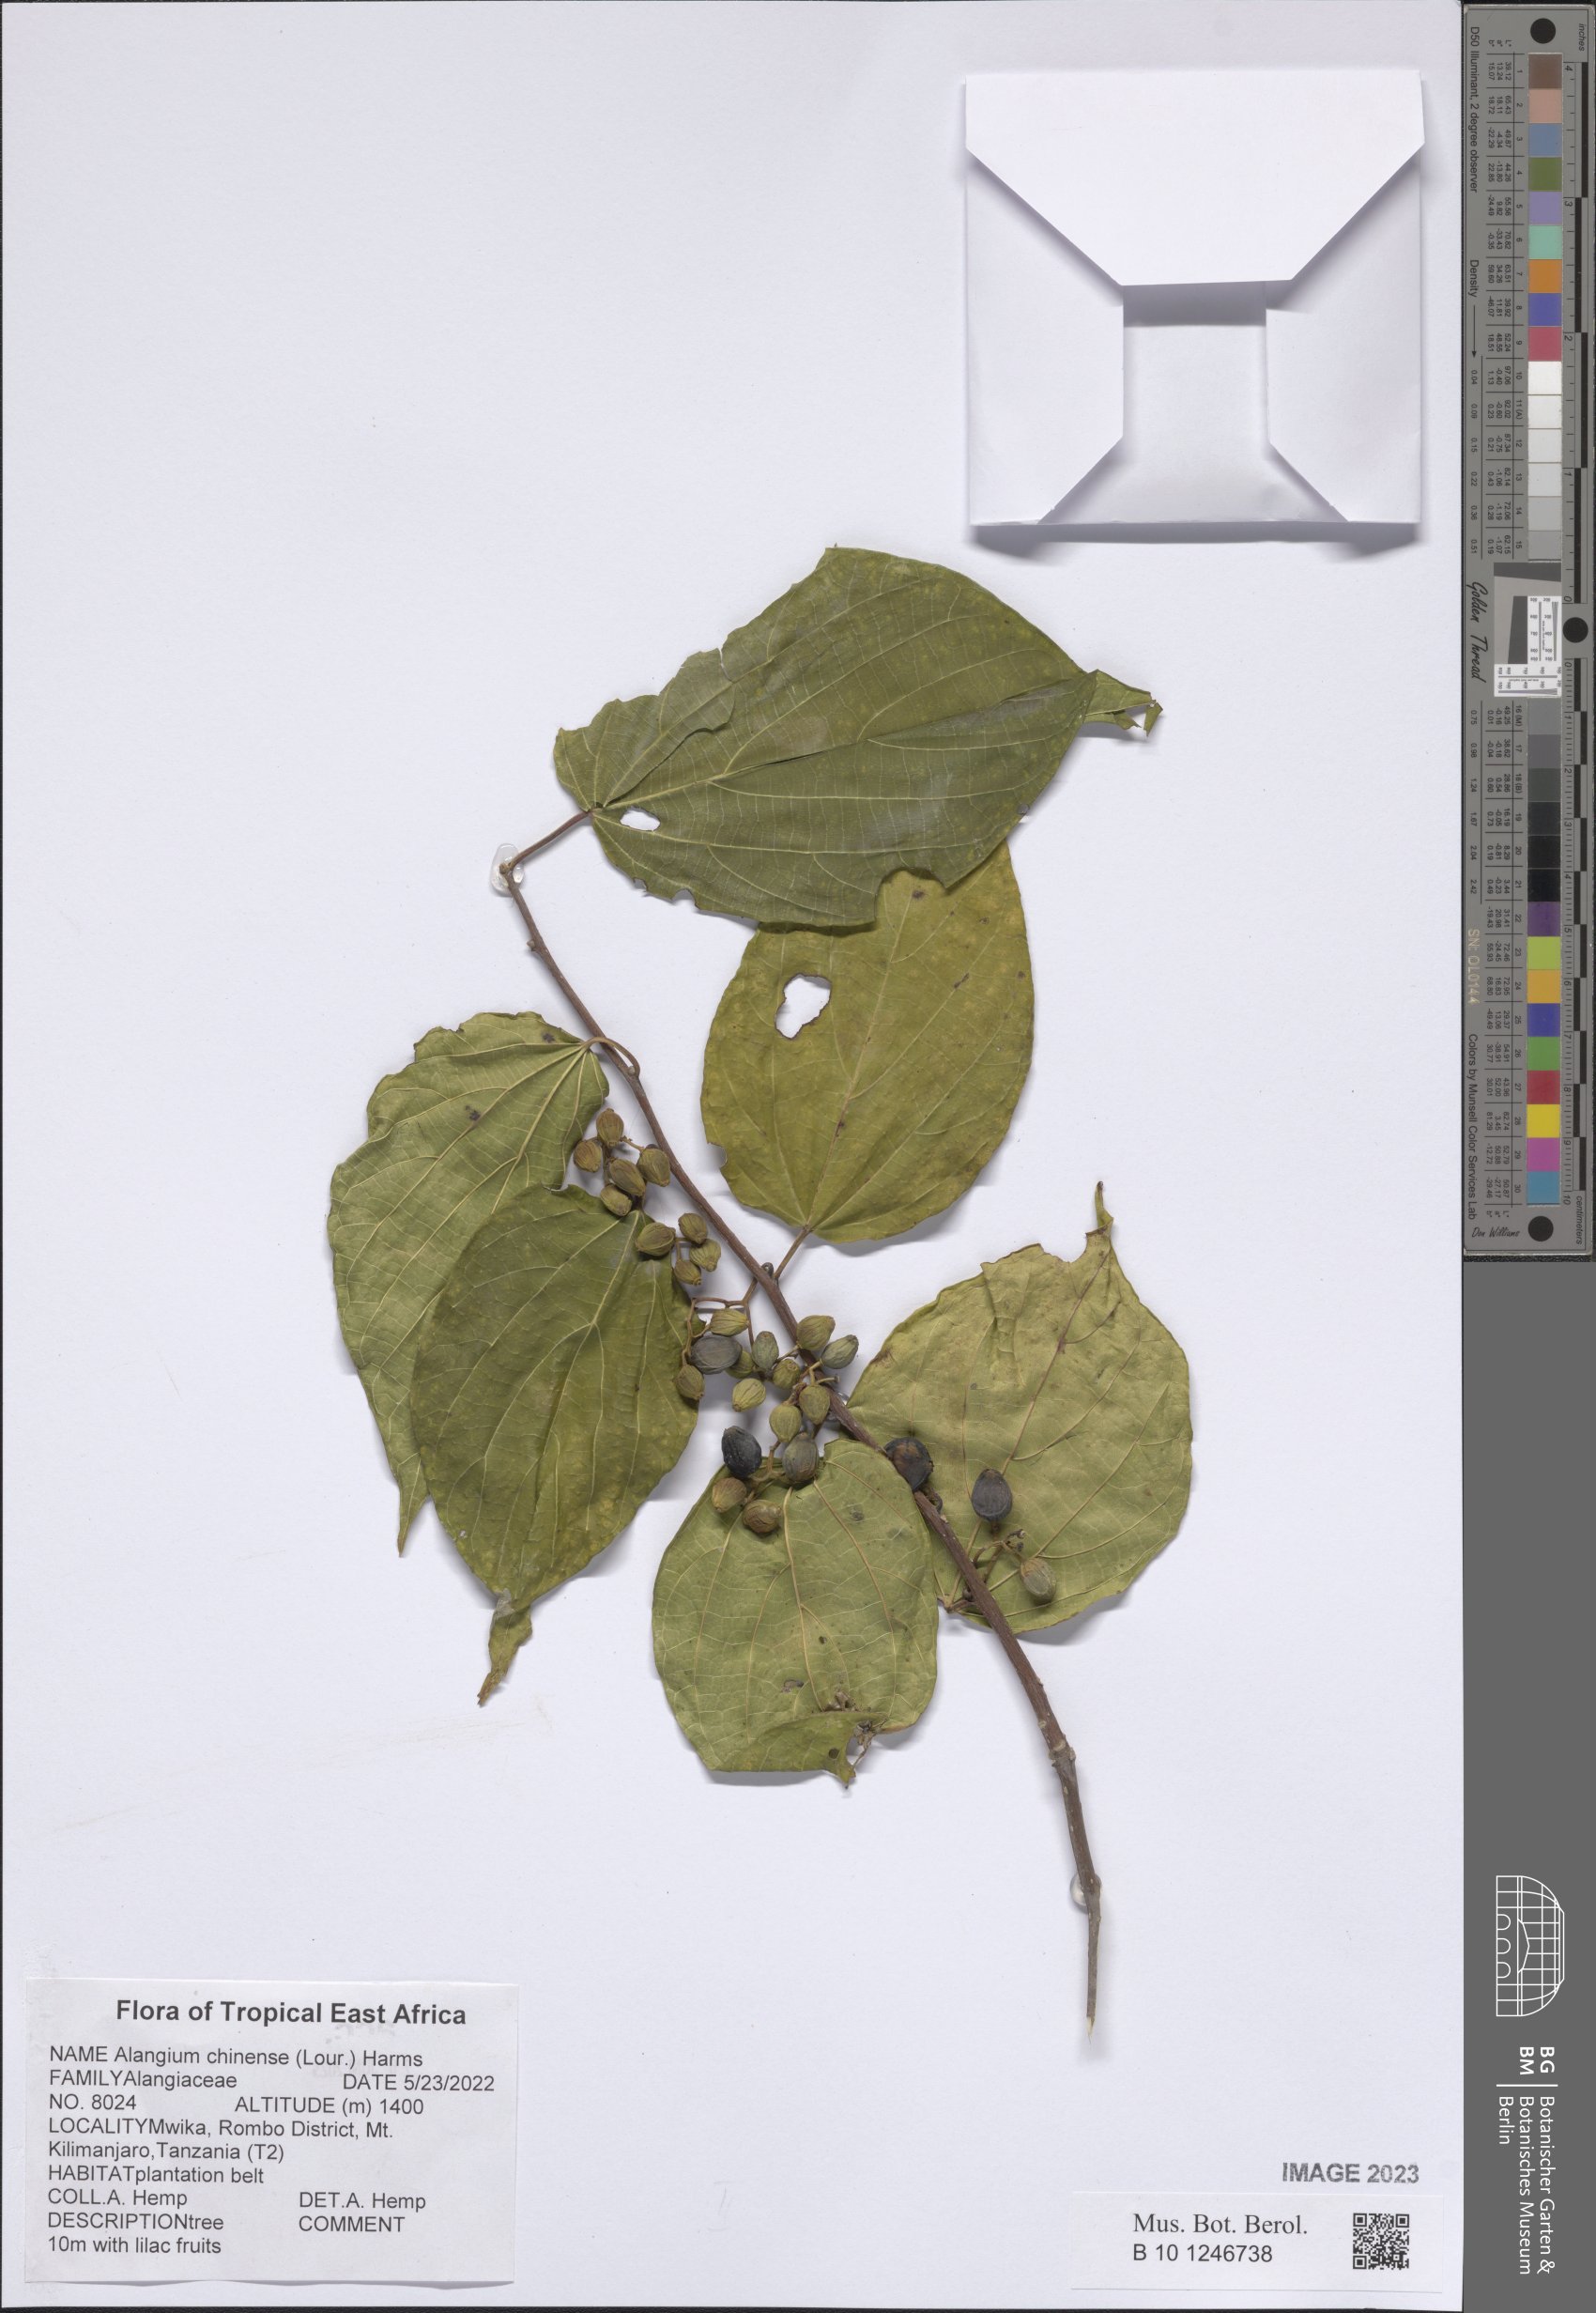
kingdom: Plantae
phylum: Tracheophyta
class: Magnoliopsida
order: Cornales
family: Cornaceae
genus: Alangium
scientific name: Alangium chinense
